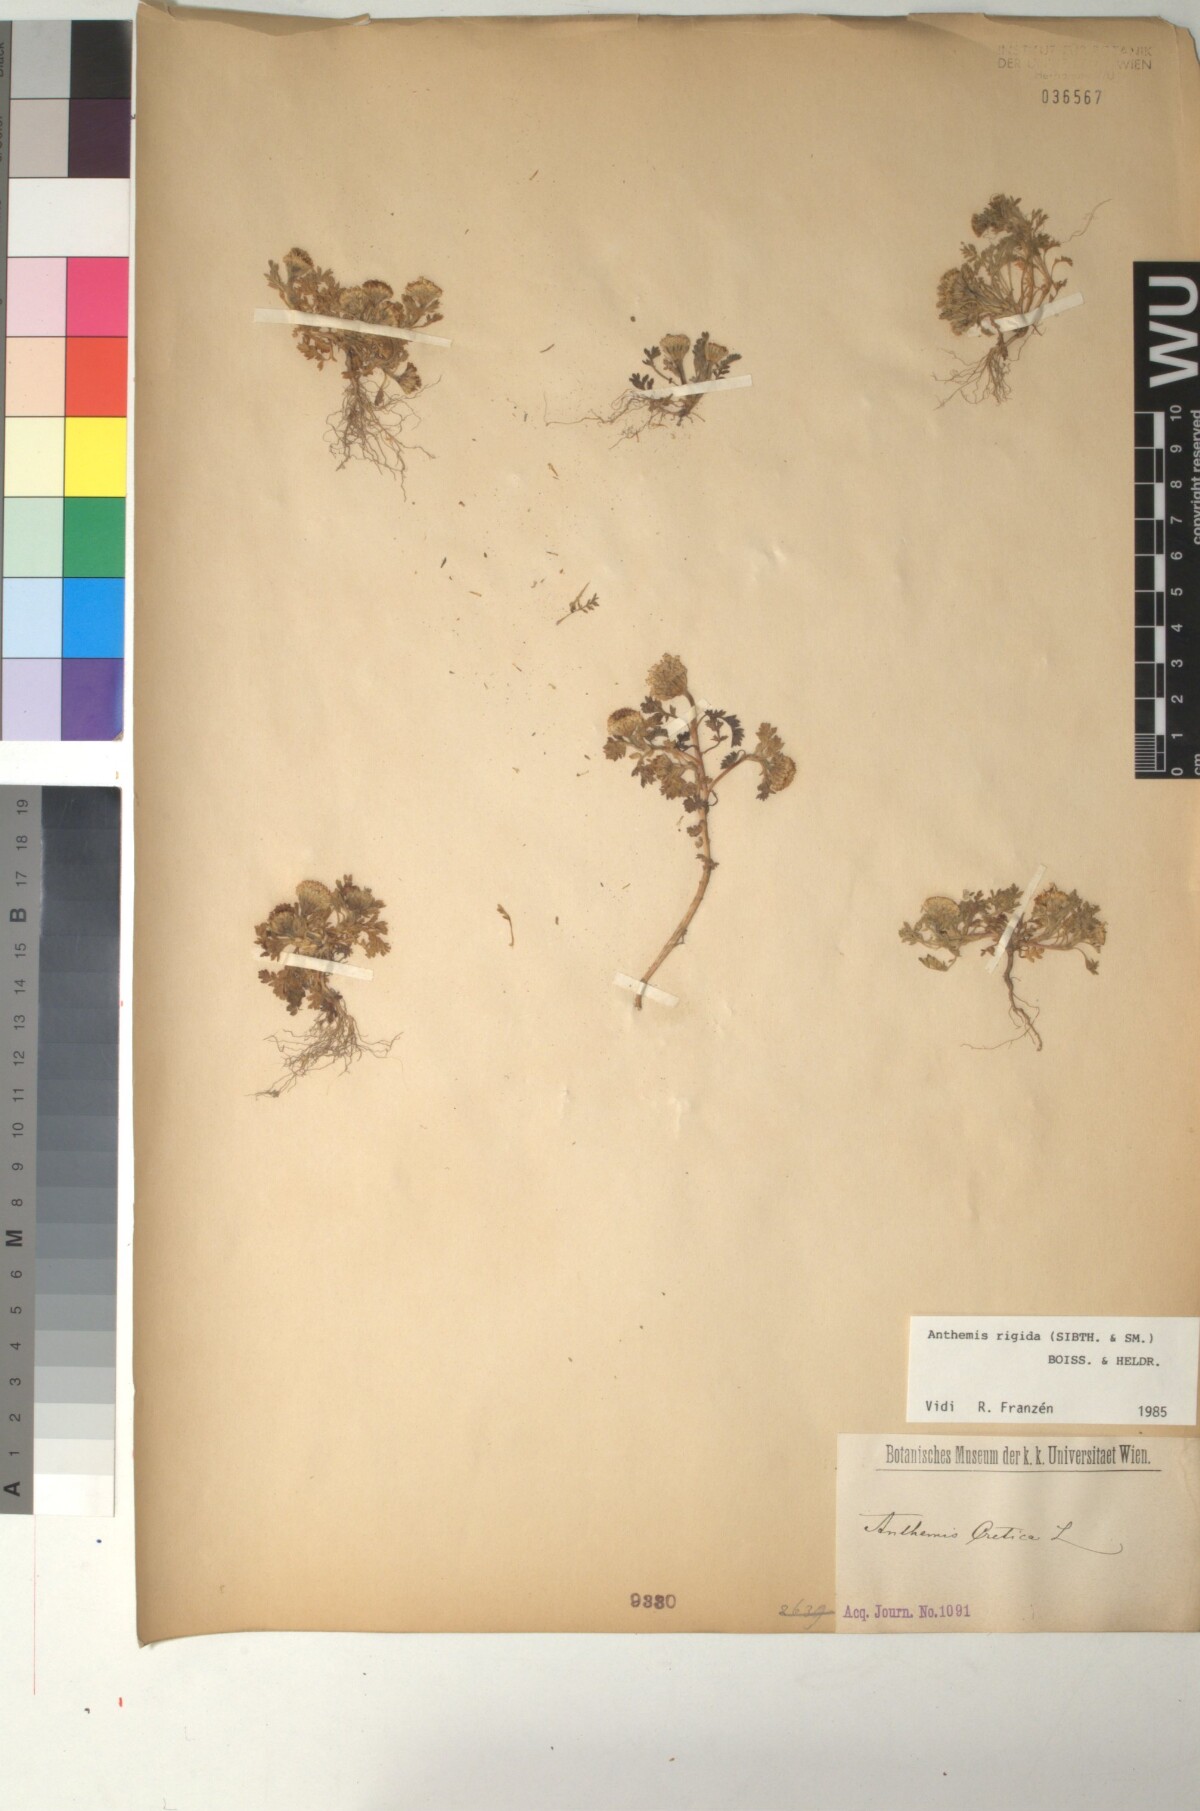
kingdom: Plantae
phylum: Tracheophyta
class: Magnoliopsida
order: Asterales
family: Asteraceae
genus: Anthemis
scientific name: Anthemis rigida
